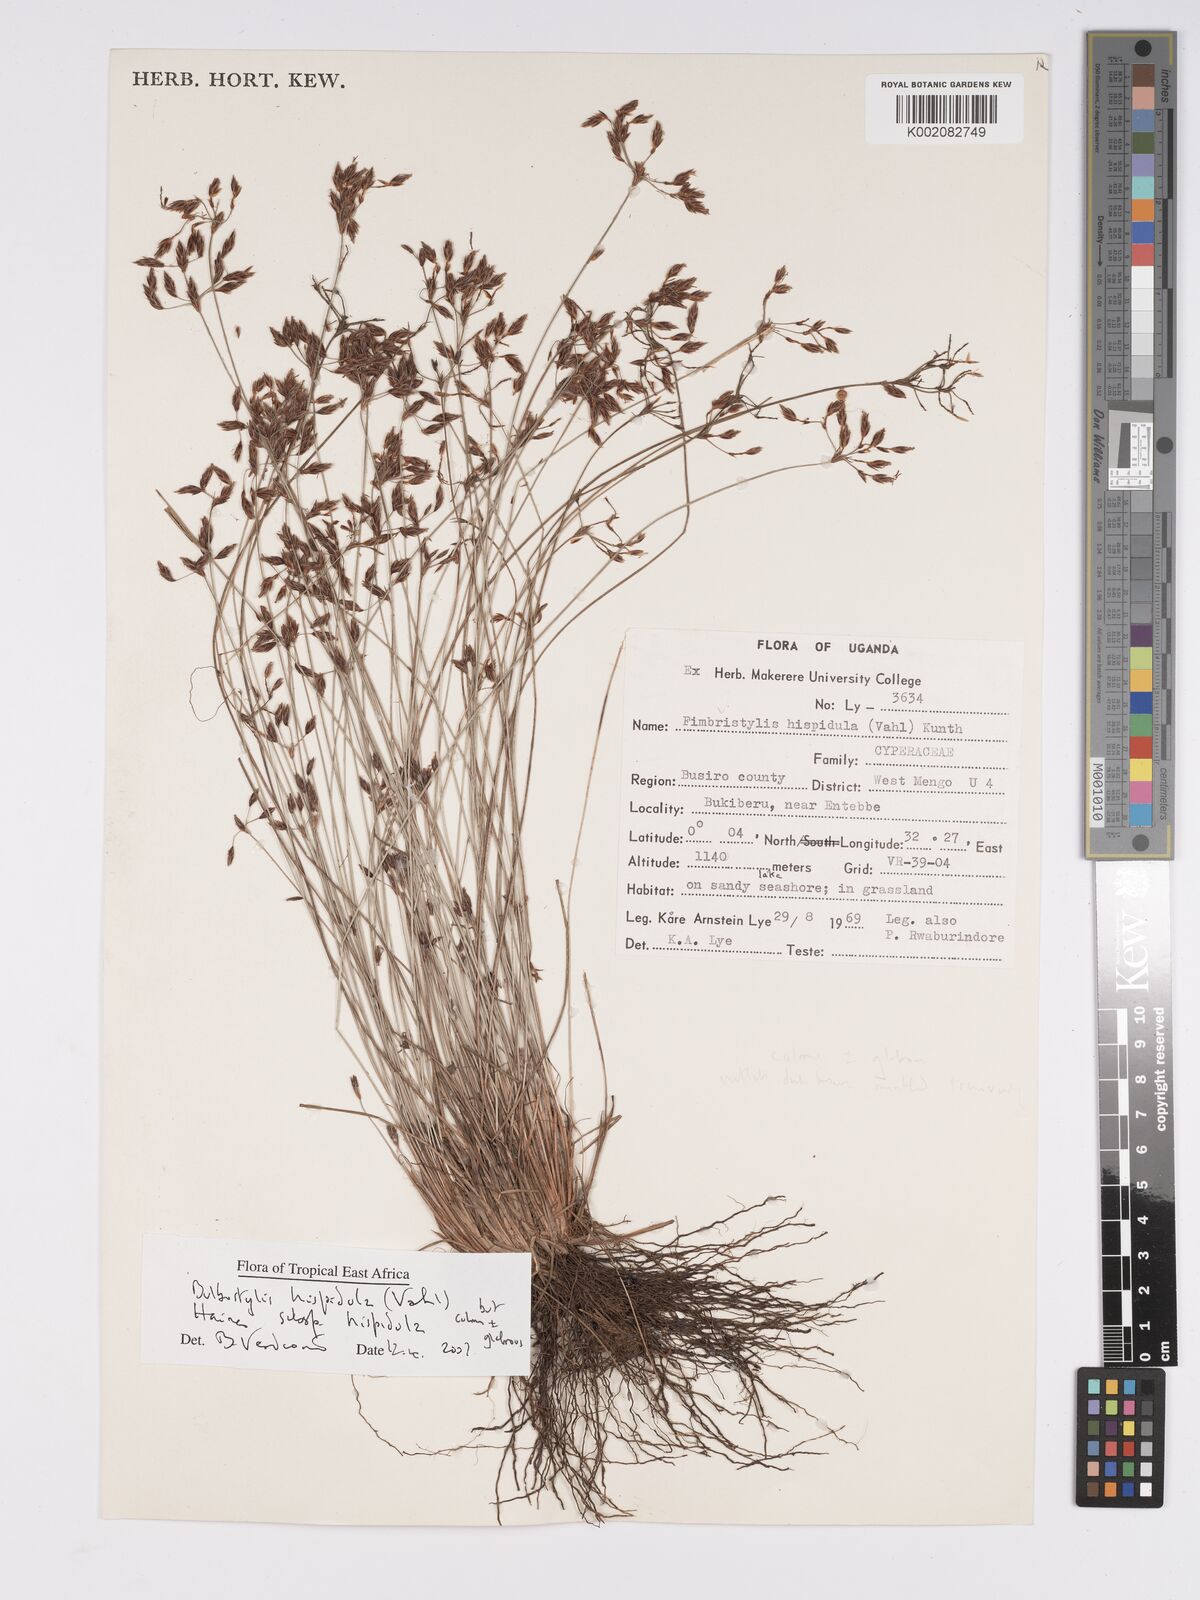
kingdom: Plantae
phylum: Tracheophyta
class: Liliopsida
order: Poales
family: Cyperaceae
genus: Bulbostylis
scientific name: Bulbostylis hispidula
